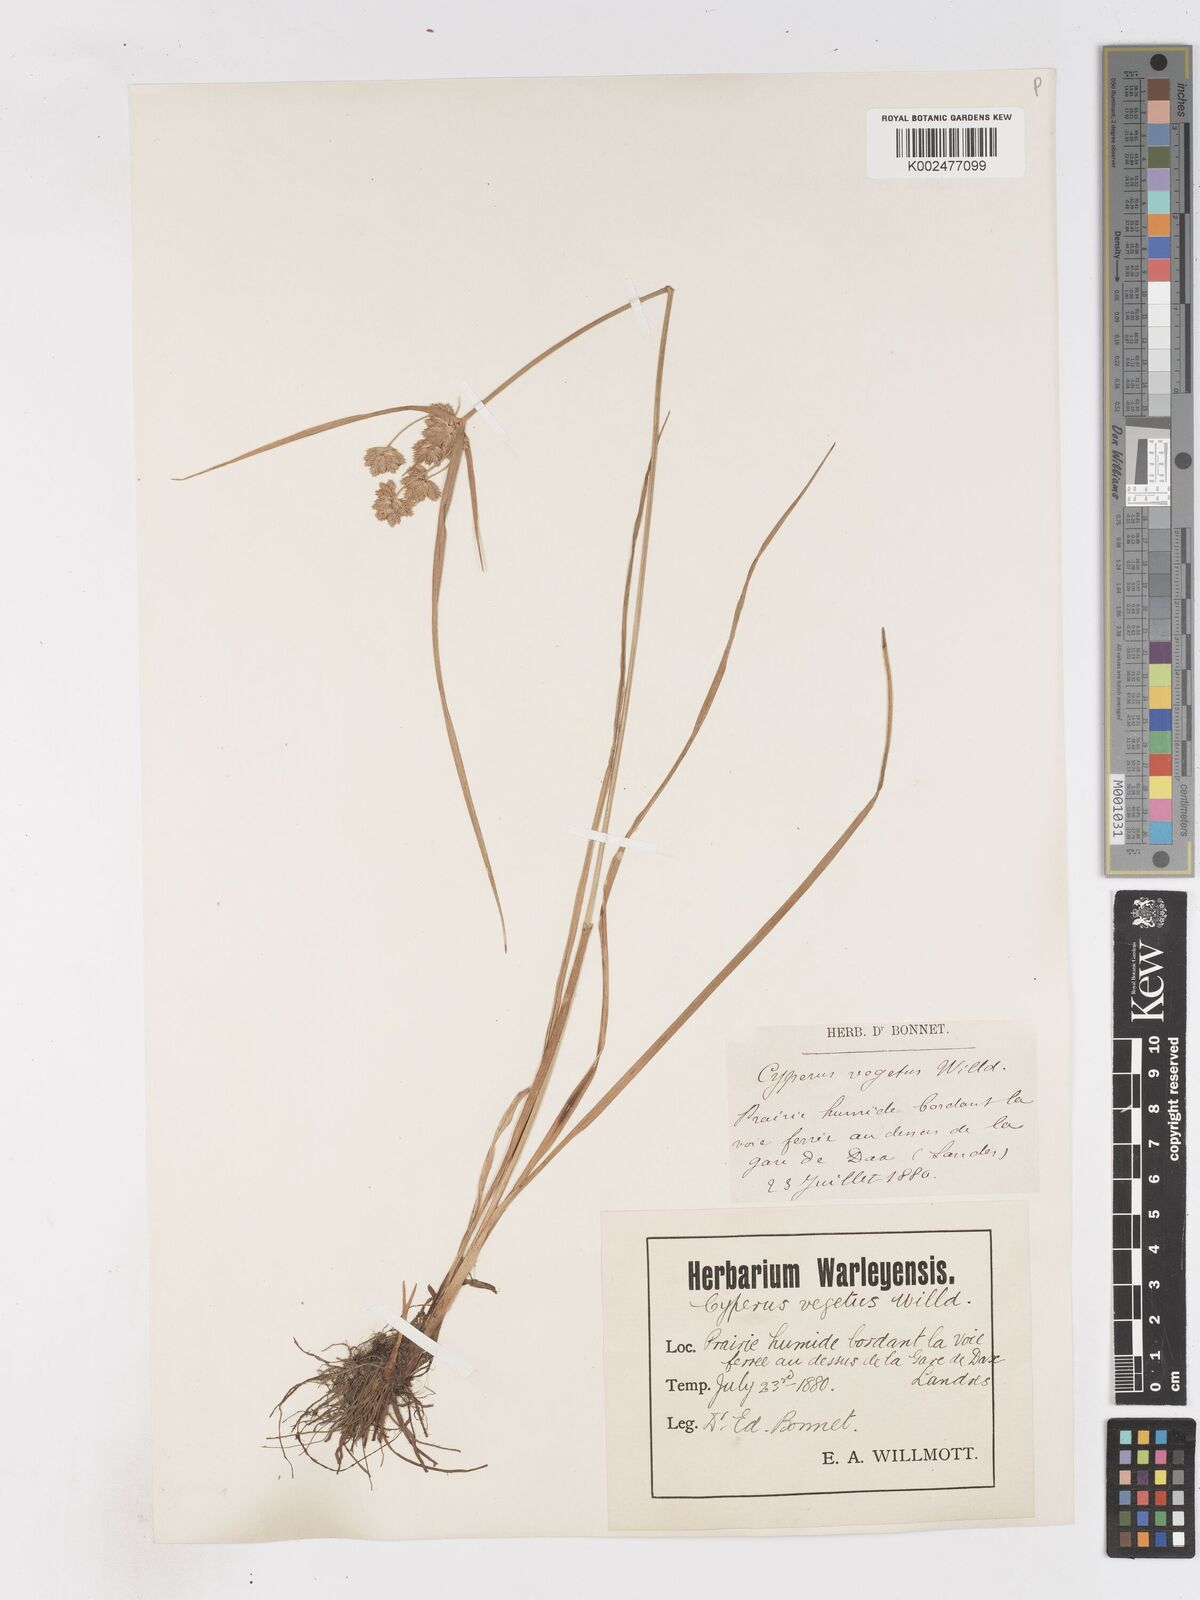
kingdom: Plantae
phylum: Tracheophyta
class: Liliopsida
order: Poales
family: Cyperaceae
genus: Cyperus
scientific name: Cyperus eragrostis
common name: Tall flatsedge
